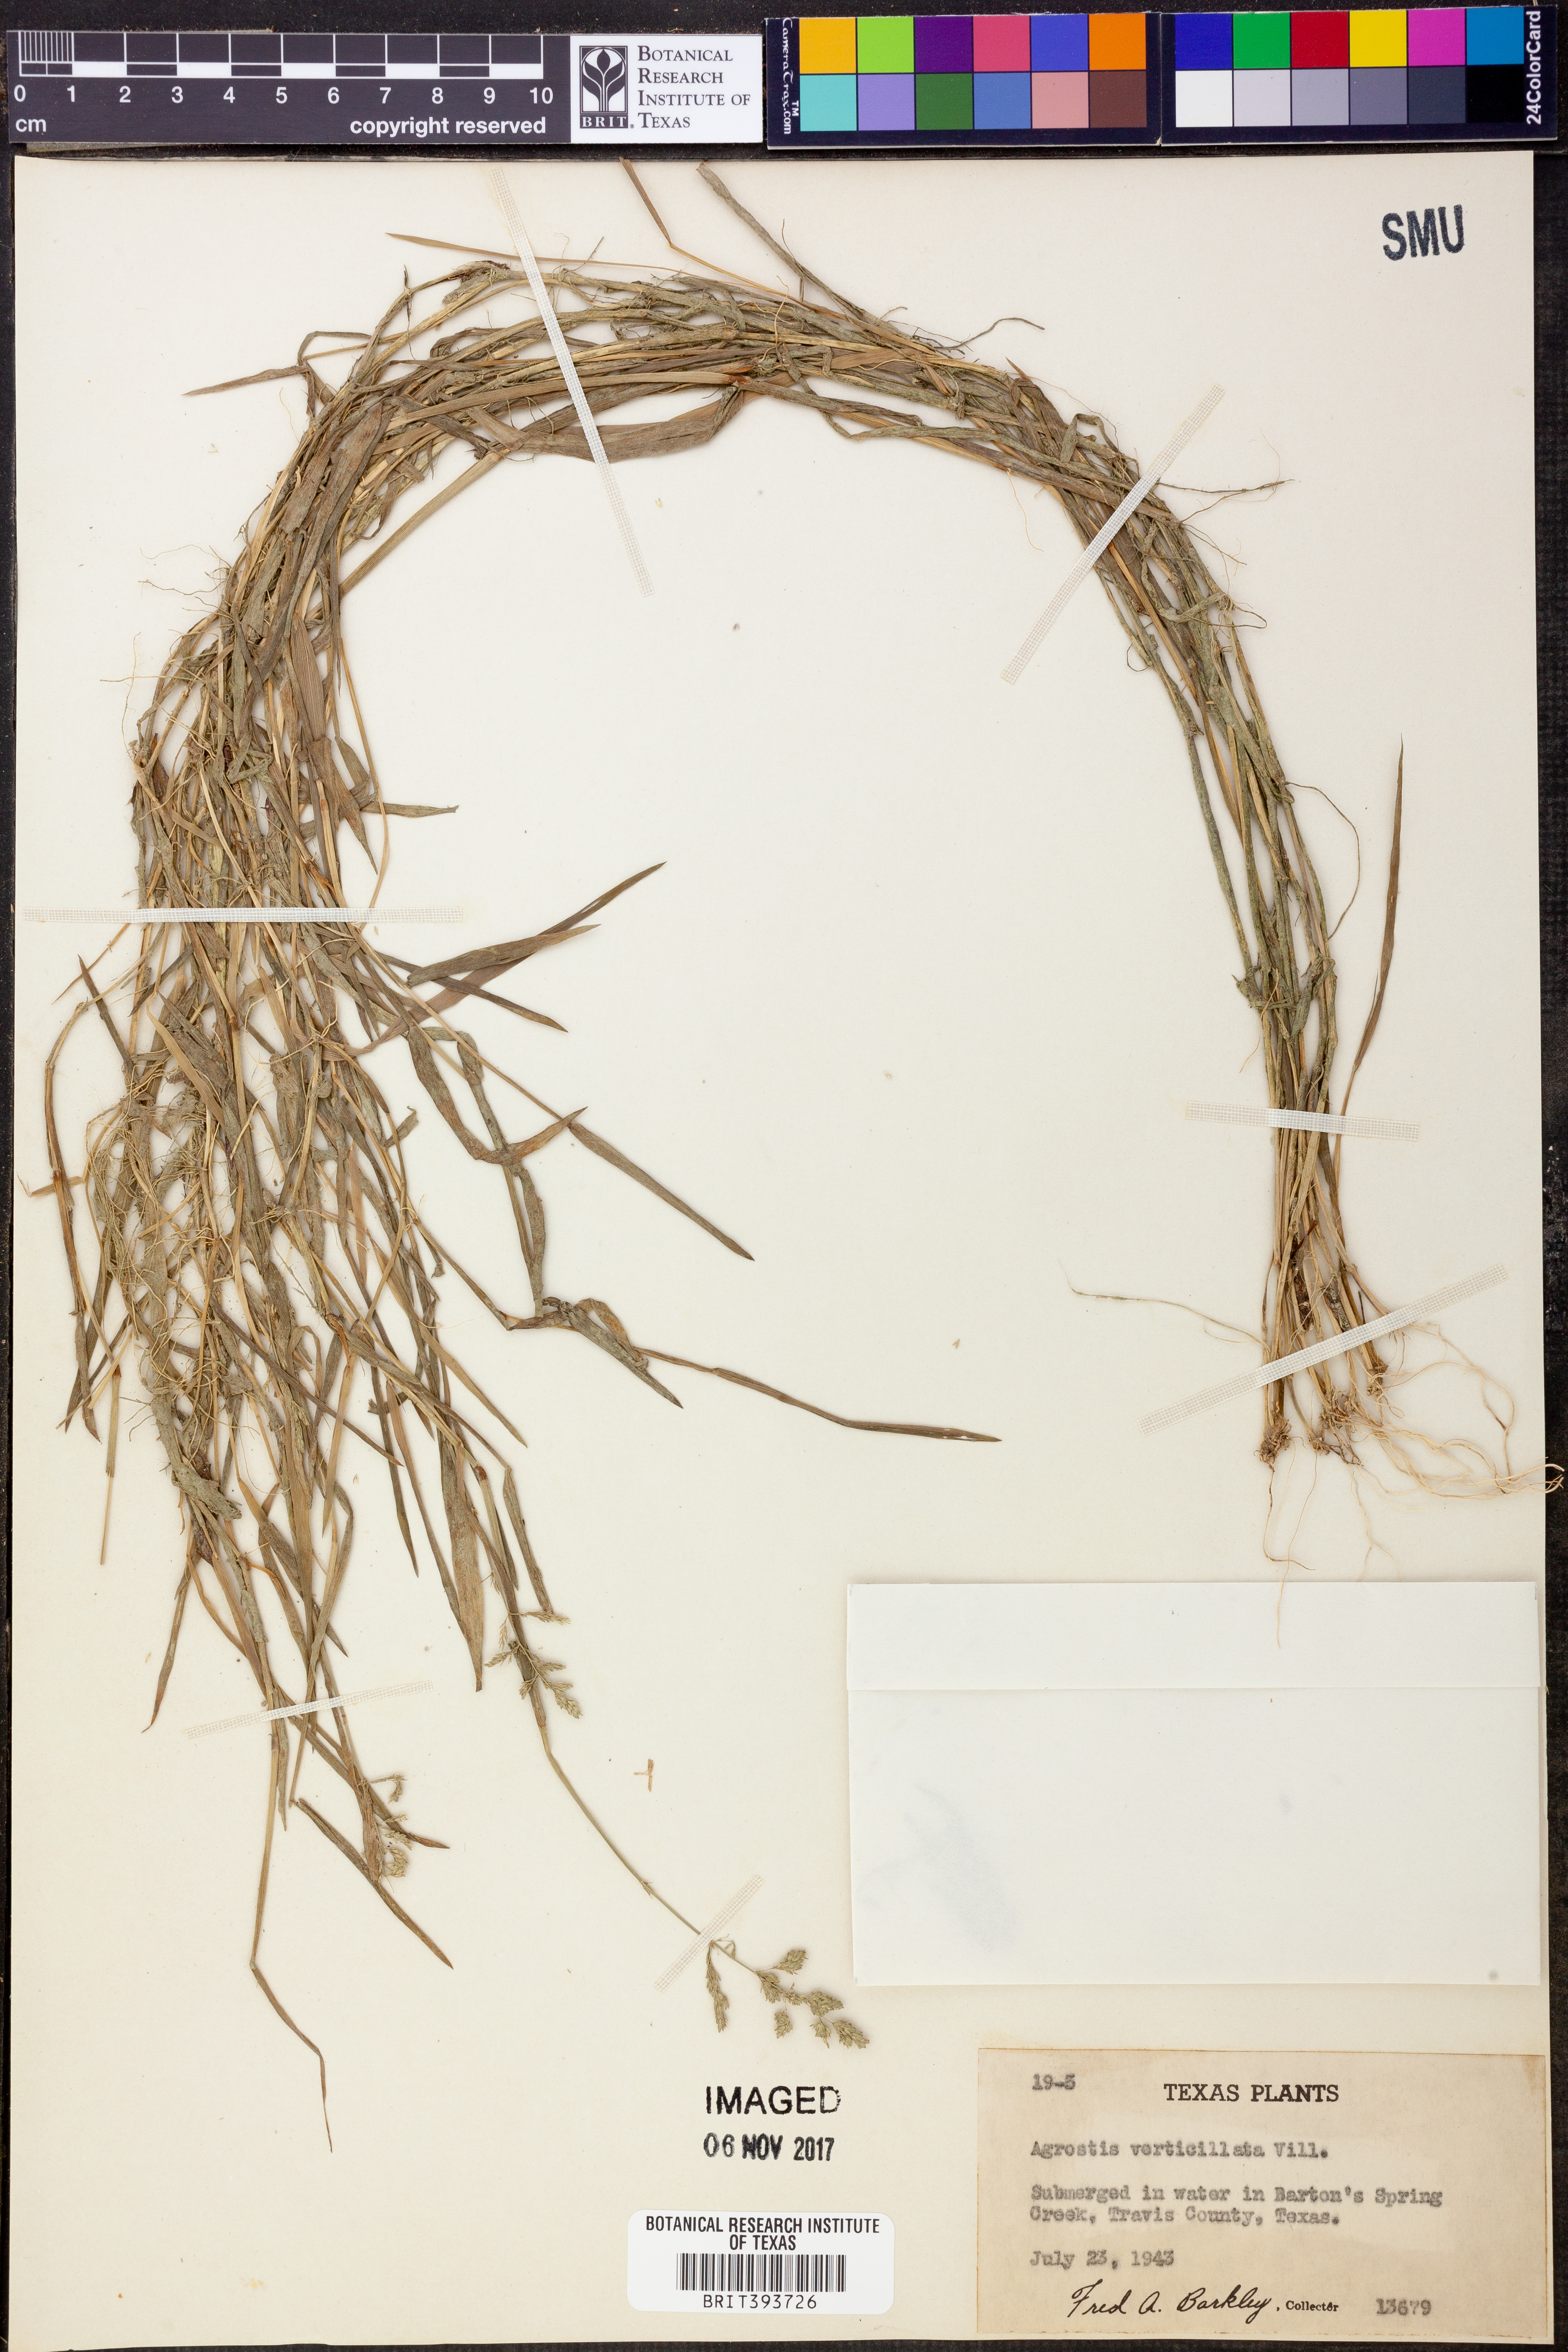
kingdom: Plantae
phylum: Tracheophyta
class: Liliopsida
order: Poales
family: Poaceae
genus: Polypogon
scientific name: Polypogon viridis
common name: Water bent
